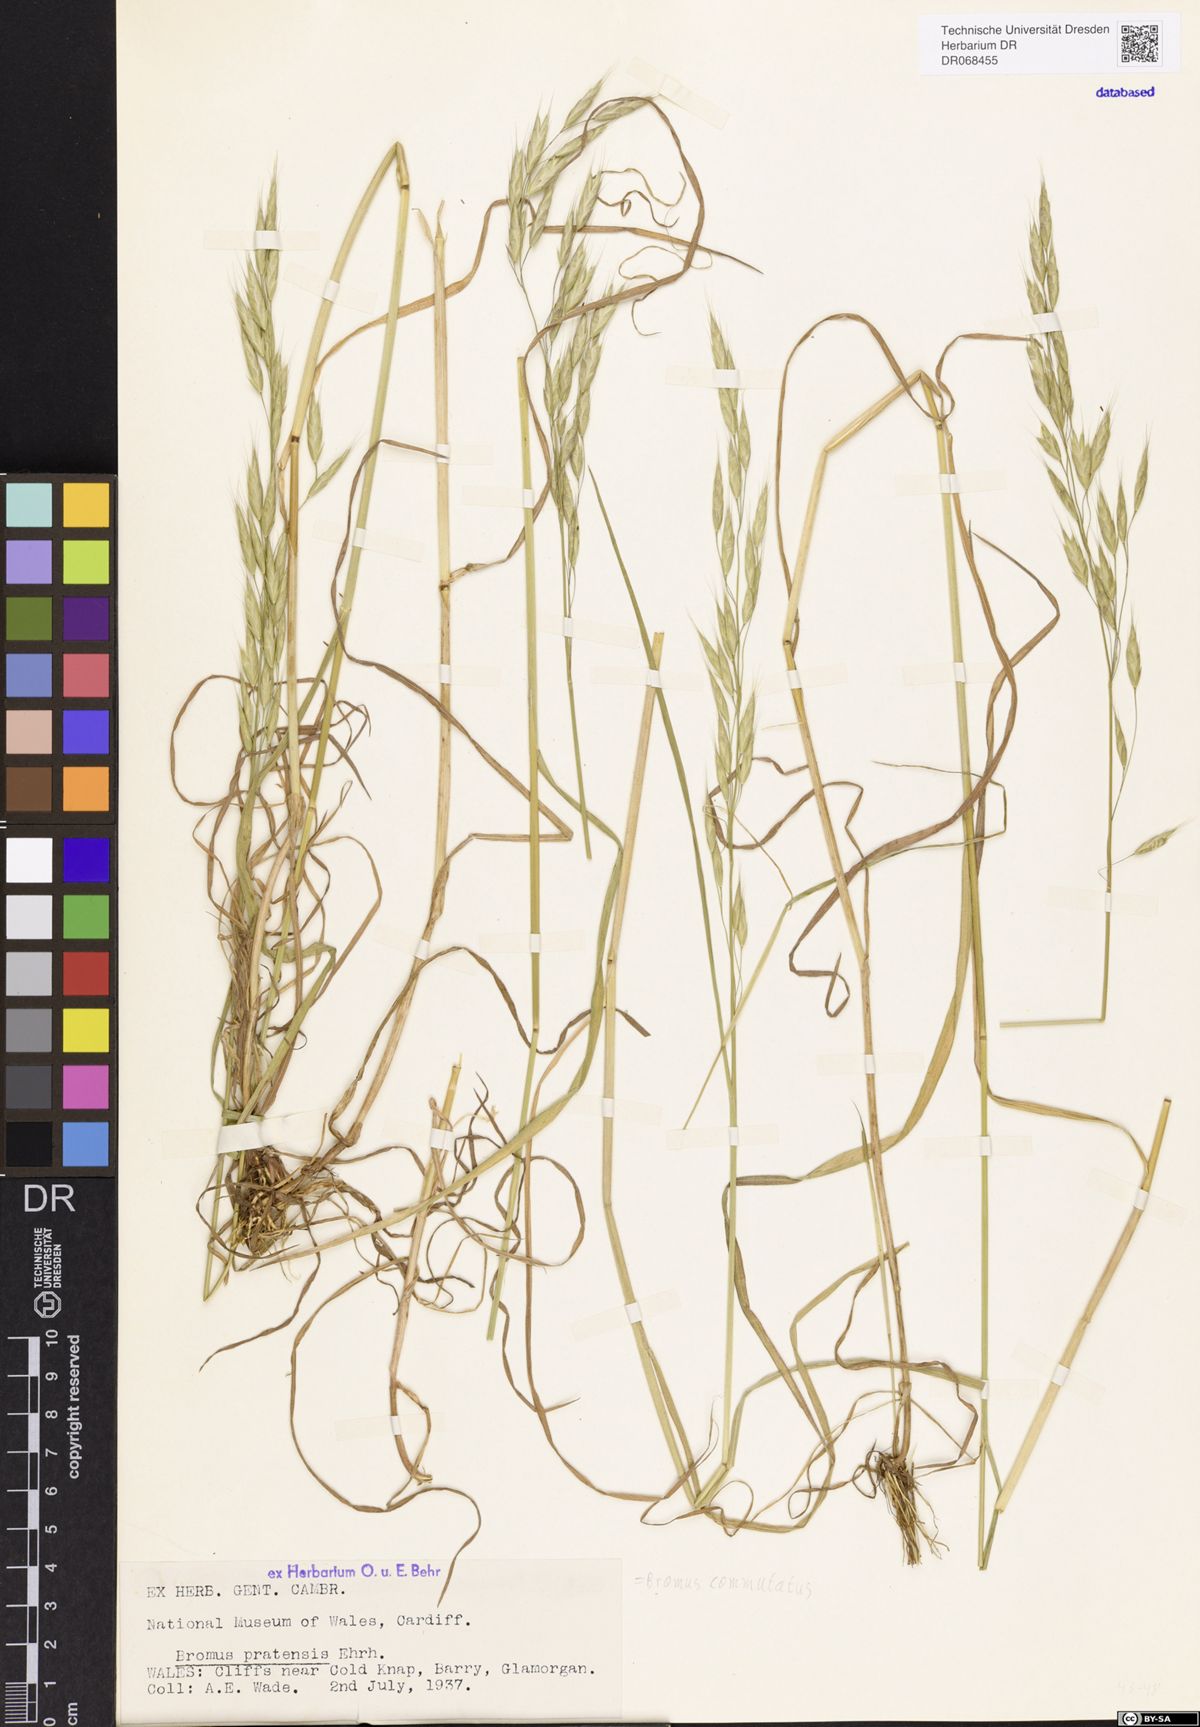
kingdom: Plantae
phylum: Tracheophyta
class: Liliopsida
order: Poales
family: Poaceae
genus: Bromus
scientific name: Bromus commutatus
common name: Meadow brome
